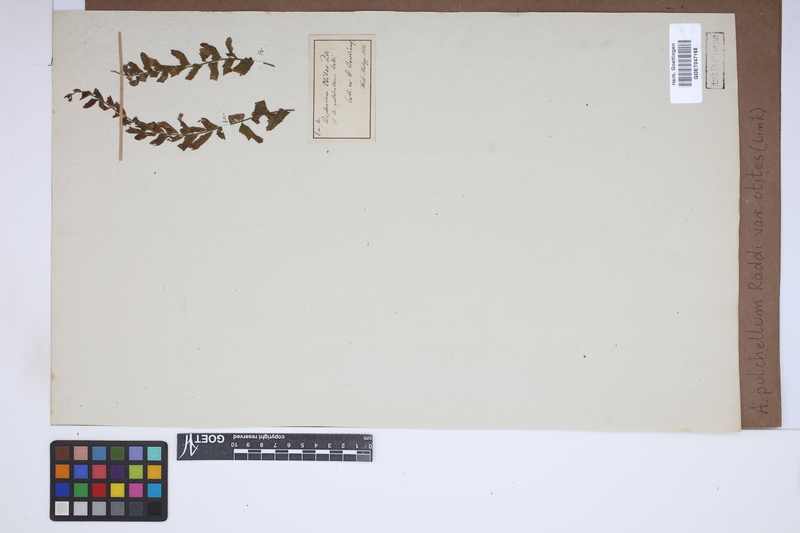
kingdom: Plantae
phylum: Tracheophyta
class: Polypodiopsida
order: Polypodiales
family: Aspleniaceae
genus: Asplenium
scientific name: Asplenium otites
